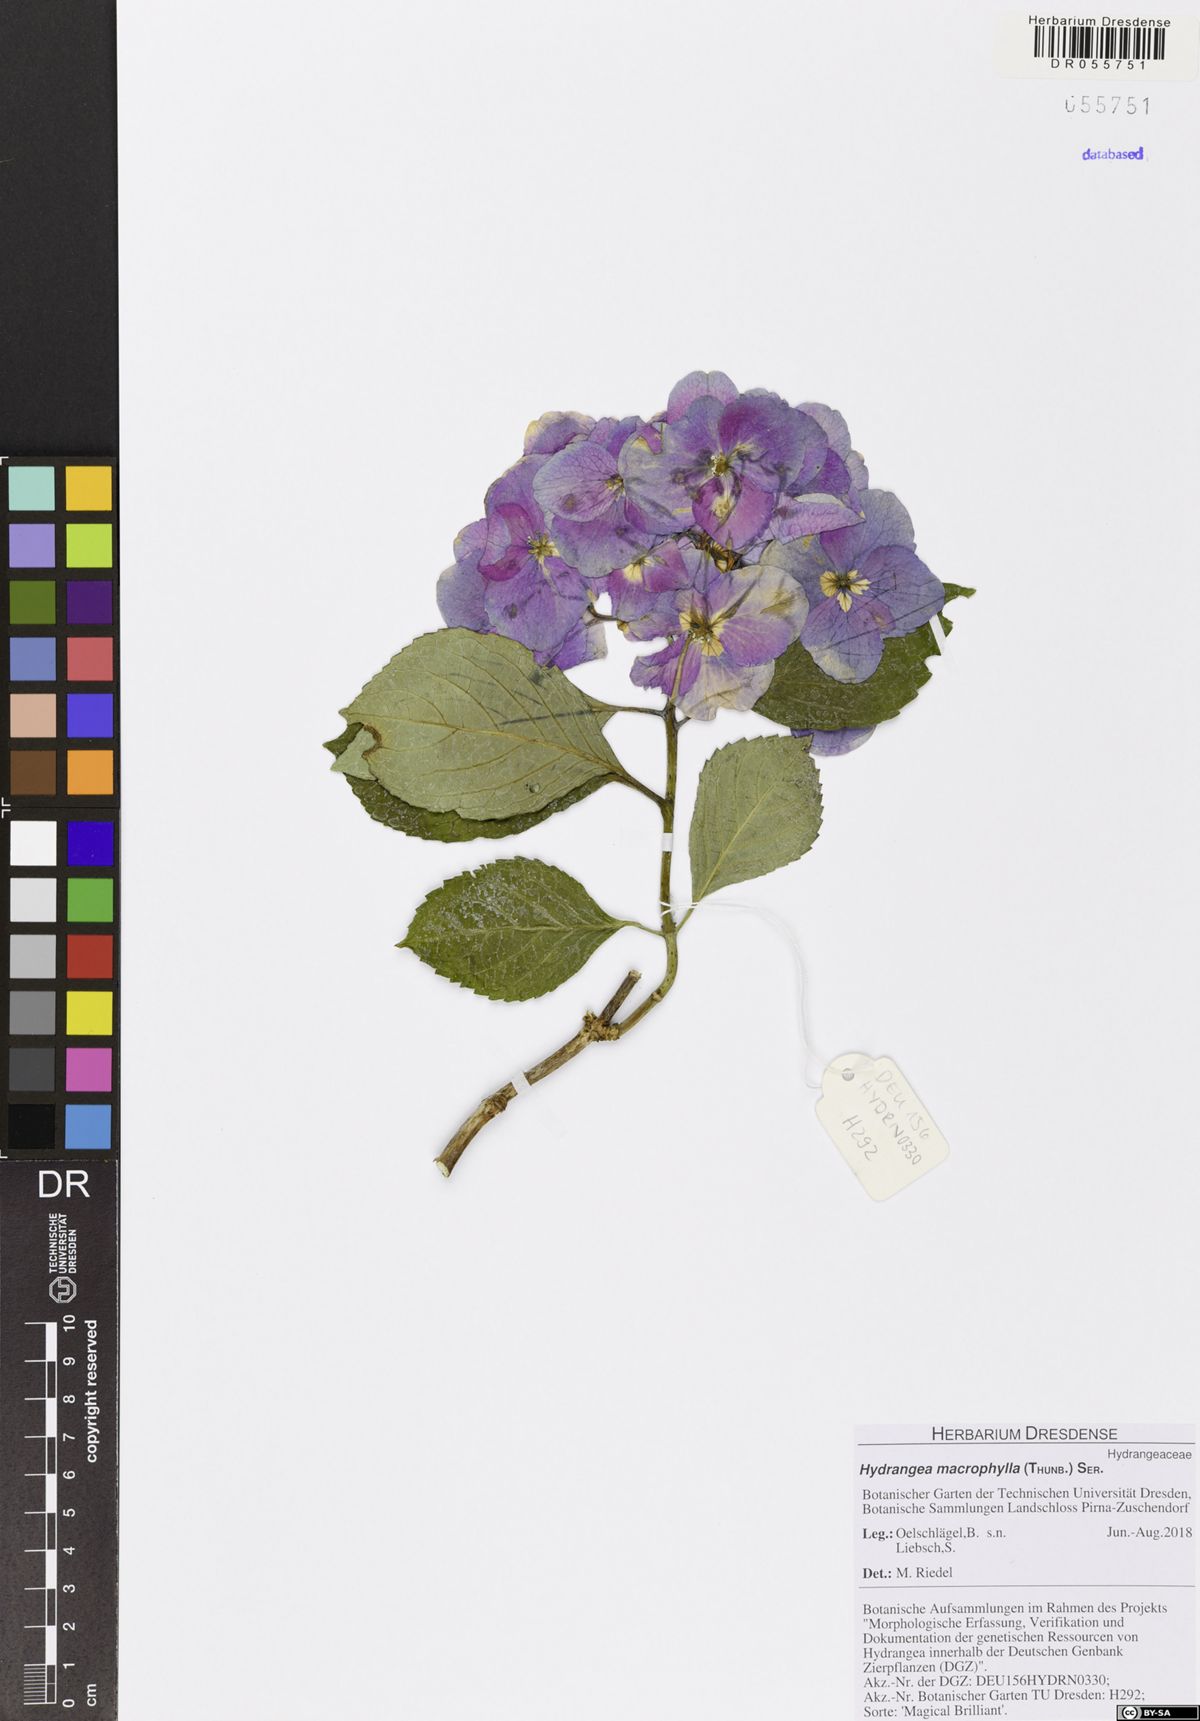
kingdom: Plantae
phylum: Tracheophyta
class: Magnoliopsida
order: Cornales
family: Hydrangeaceae
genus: Hydrangea
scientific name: Hydrangea macrophylla
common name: Hydrangea
